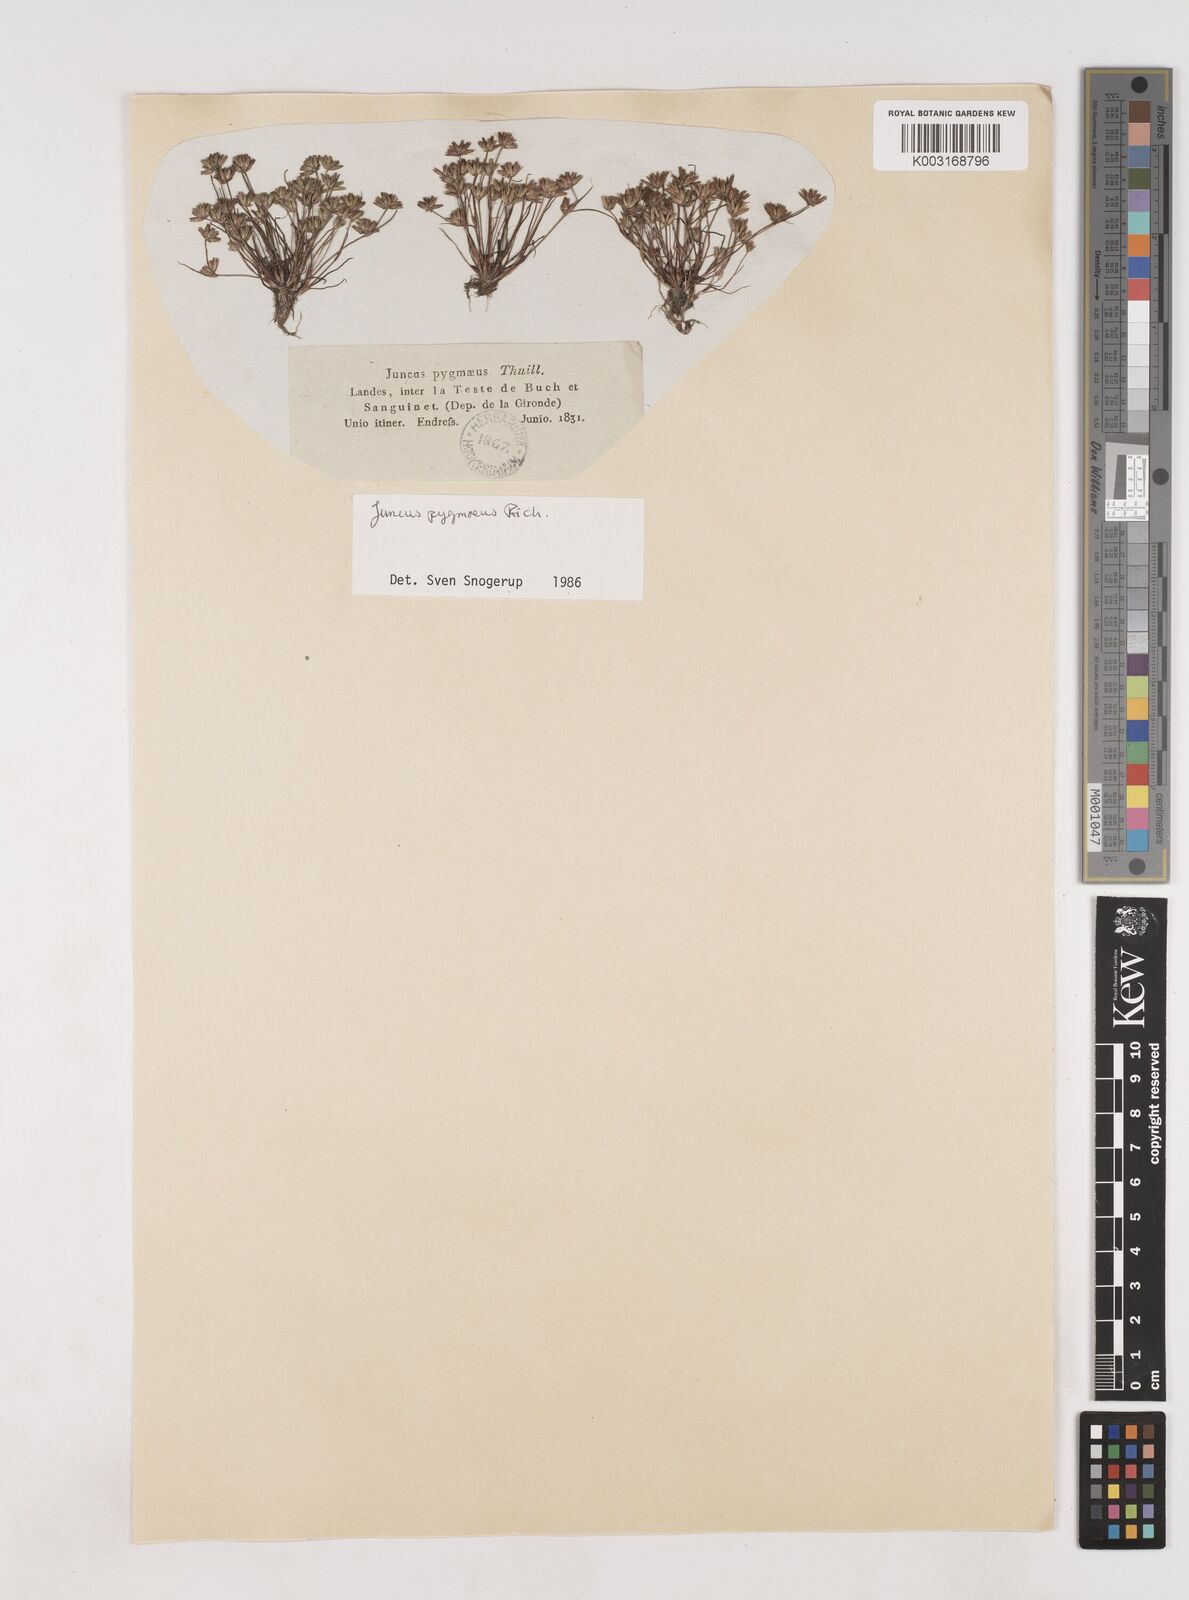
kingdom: Plantae
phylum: Tracheophyta
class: Liliopsida
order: Poales
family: Juncaceae
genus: Juncus
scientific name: Juncus pygmaeus
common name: Pigmy rush
